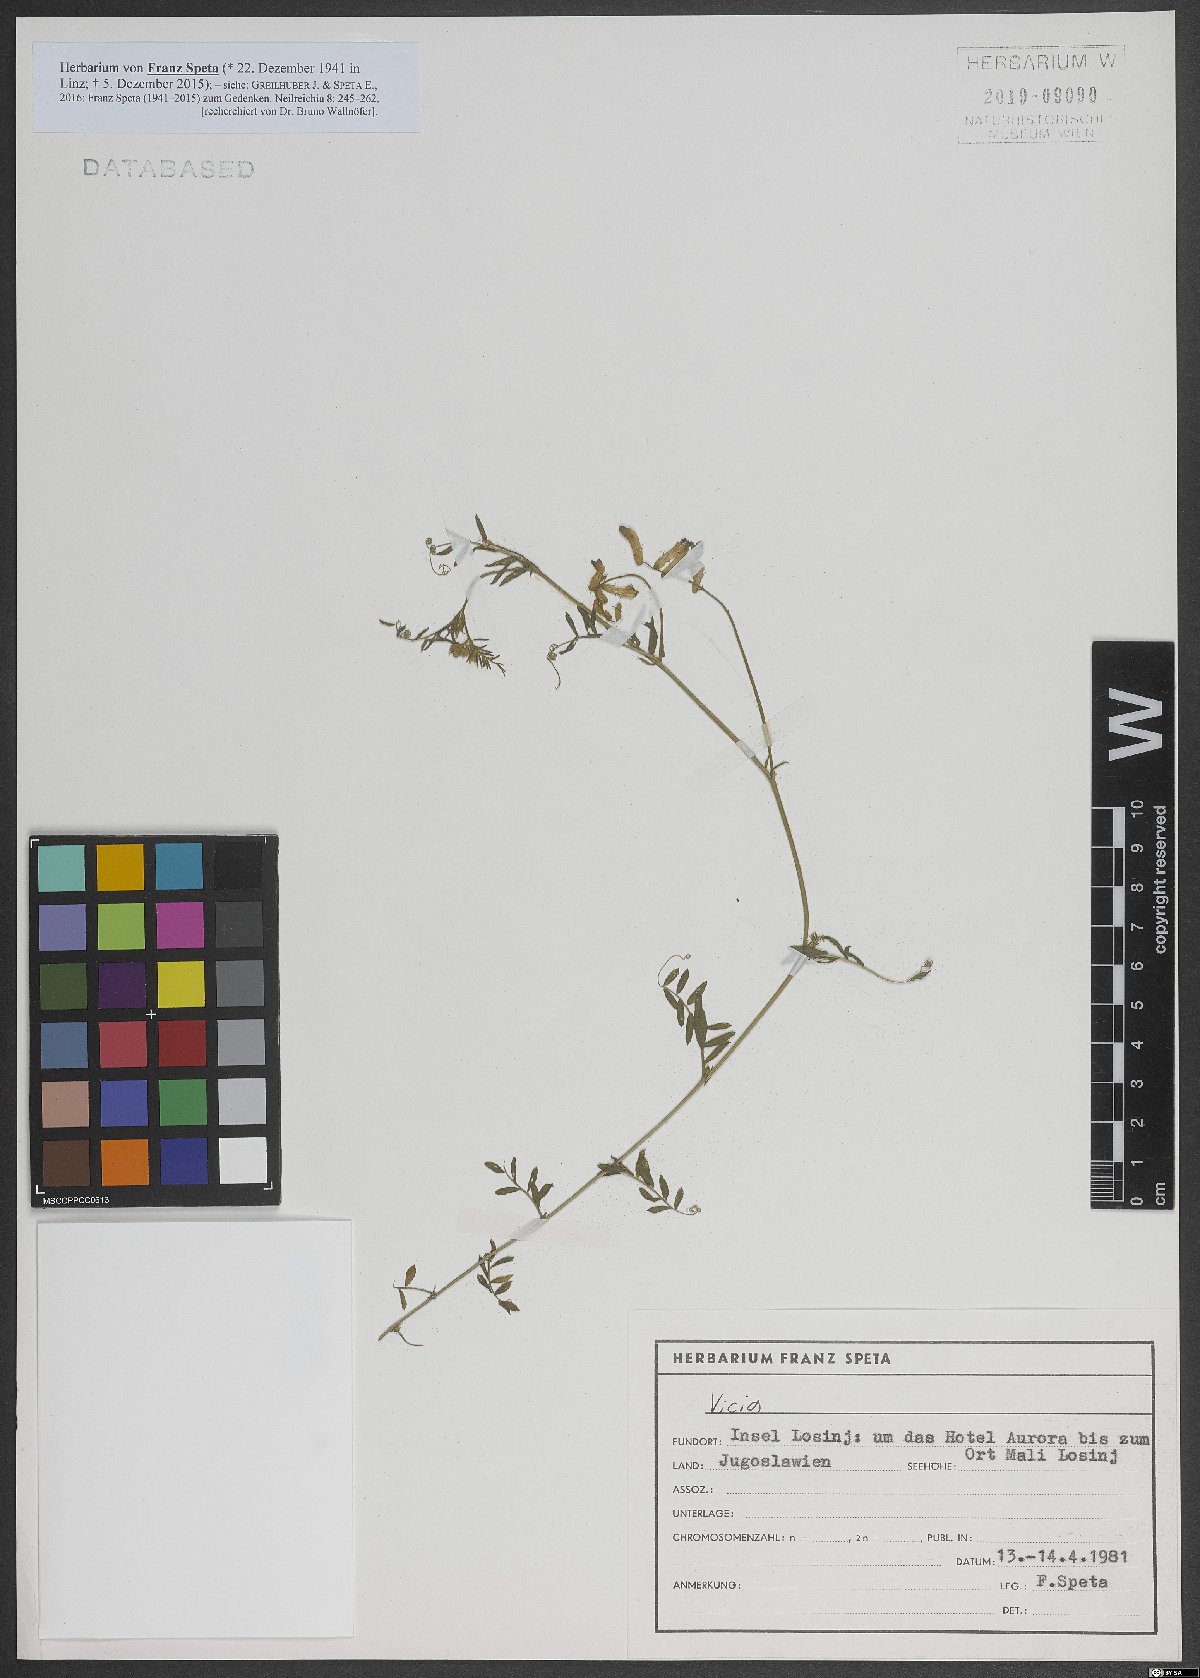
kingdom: Plantae
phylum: Tracheophyta
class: Magnoliopsida
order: Fabales
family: Fabaceae
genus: Vicia
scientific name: Vicia
